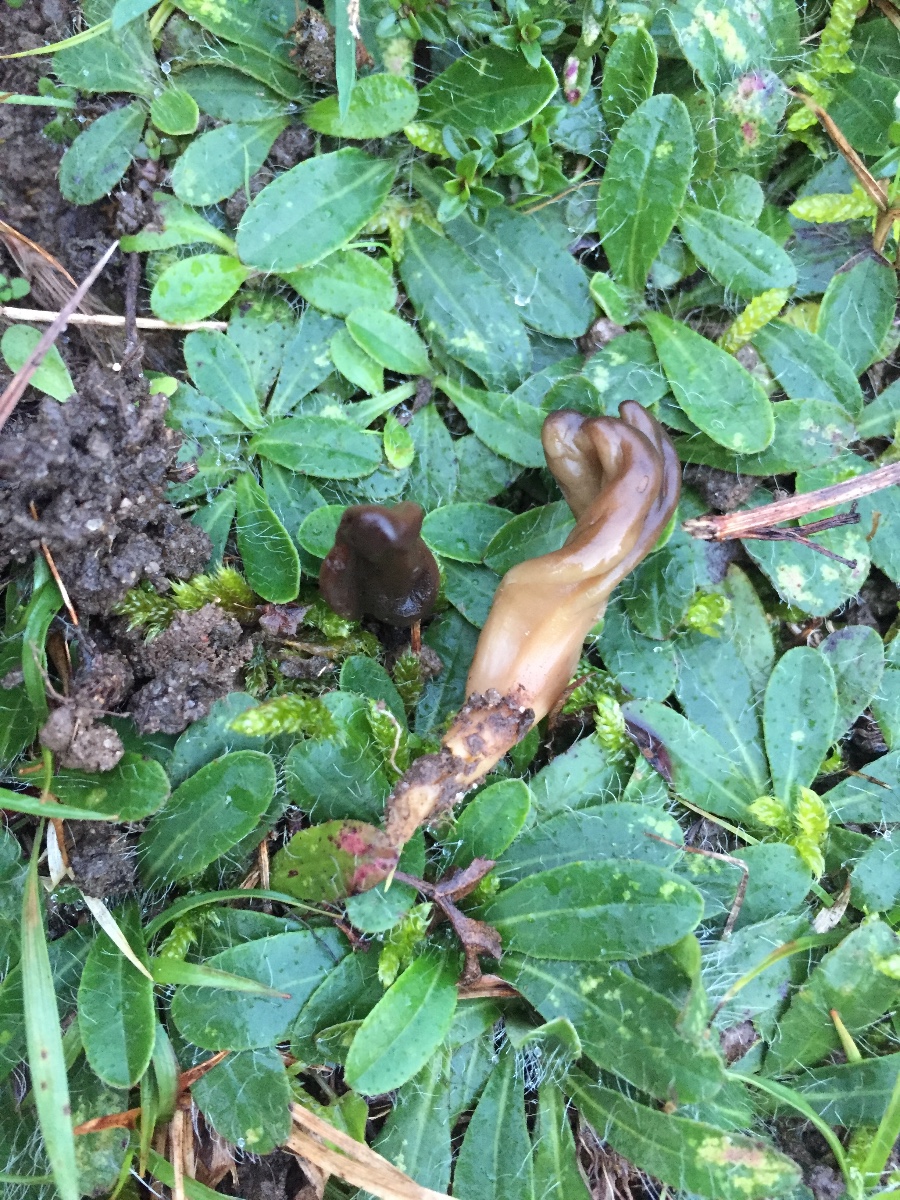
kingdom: Fungi
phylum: Ascomycota
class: Leotiomycetes
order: Leotiales
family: Leotiaceae
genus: Microglossum
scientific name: Microglossum olivaceum
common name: olivenbrun farvetunge
